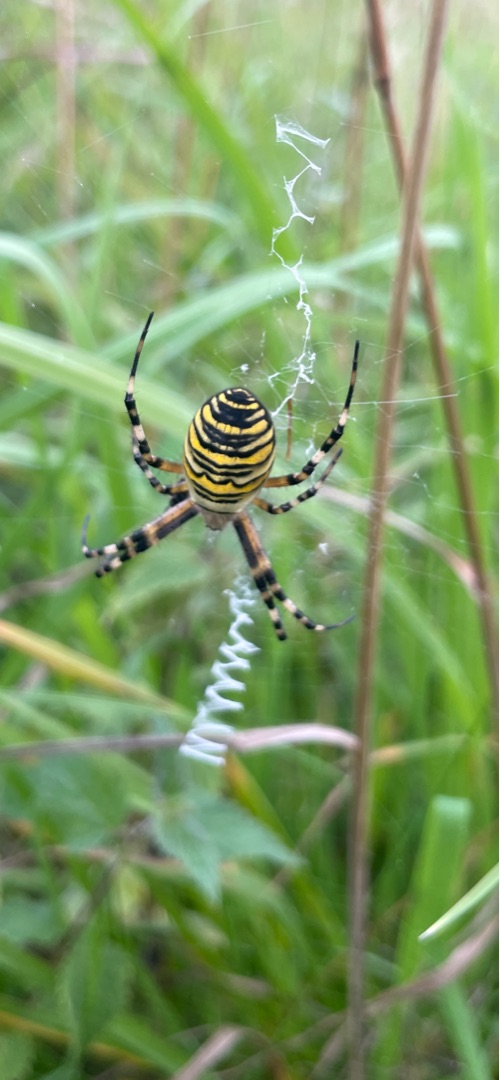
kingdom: Animalia
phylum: Arthropoda
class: Arachnida
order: Araneae
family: Araneidae
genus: Argiope
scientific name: Argiope bruennichi
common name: Hvepseedderkop
